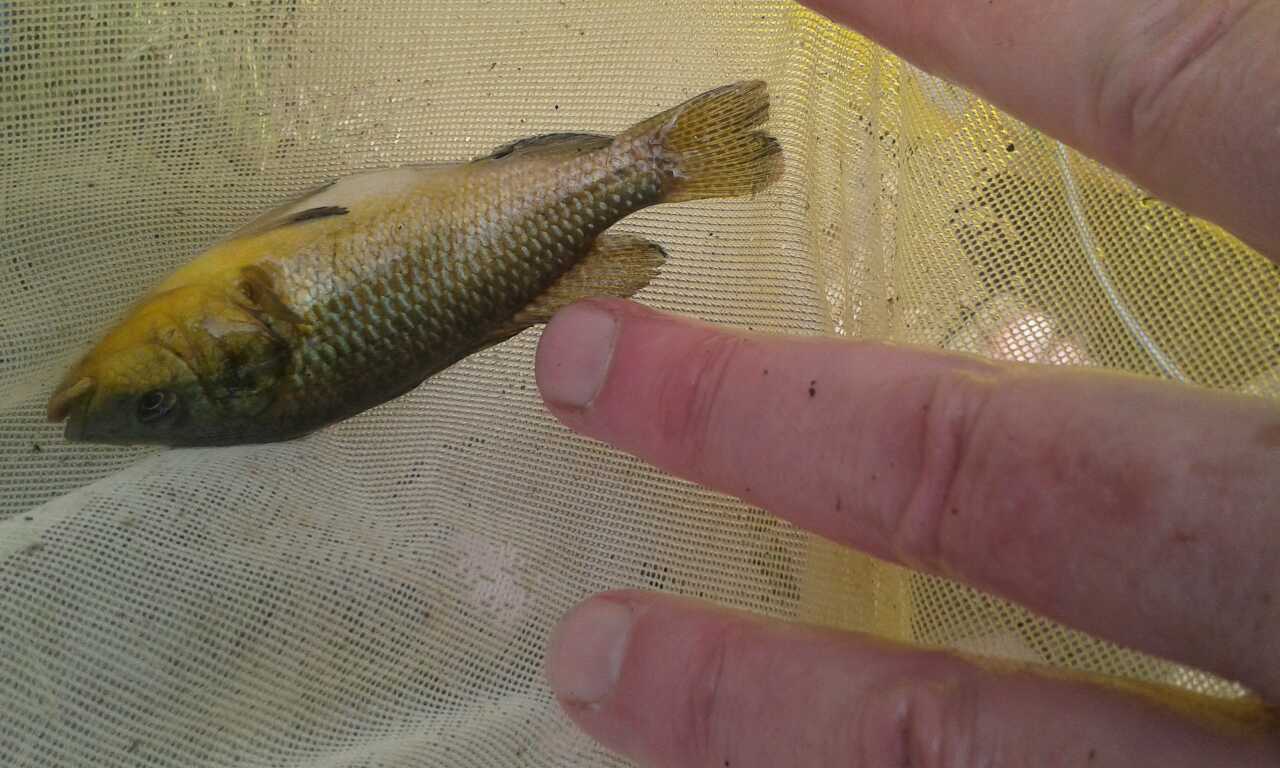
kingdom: Animalia
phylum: Chordata
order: Perciformes
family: Cichlidae
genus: Alcolapia
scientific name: Alcolapia alcalica
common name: Magadi tilapia
